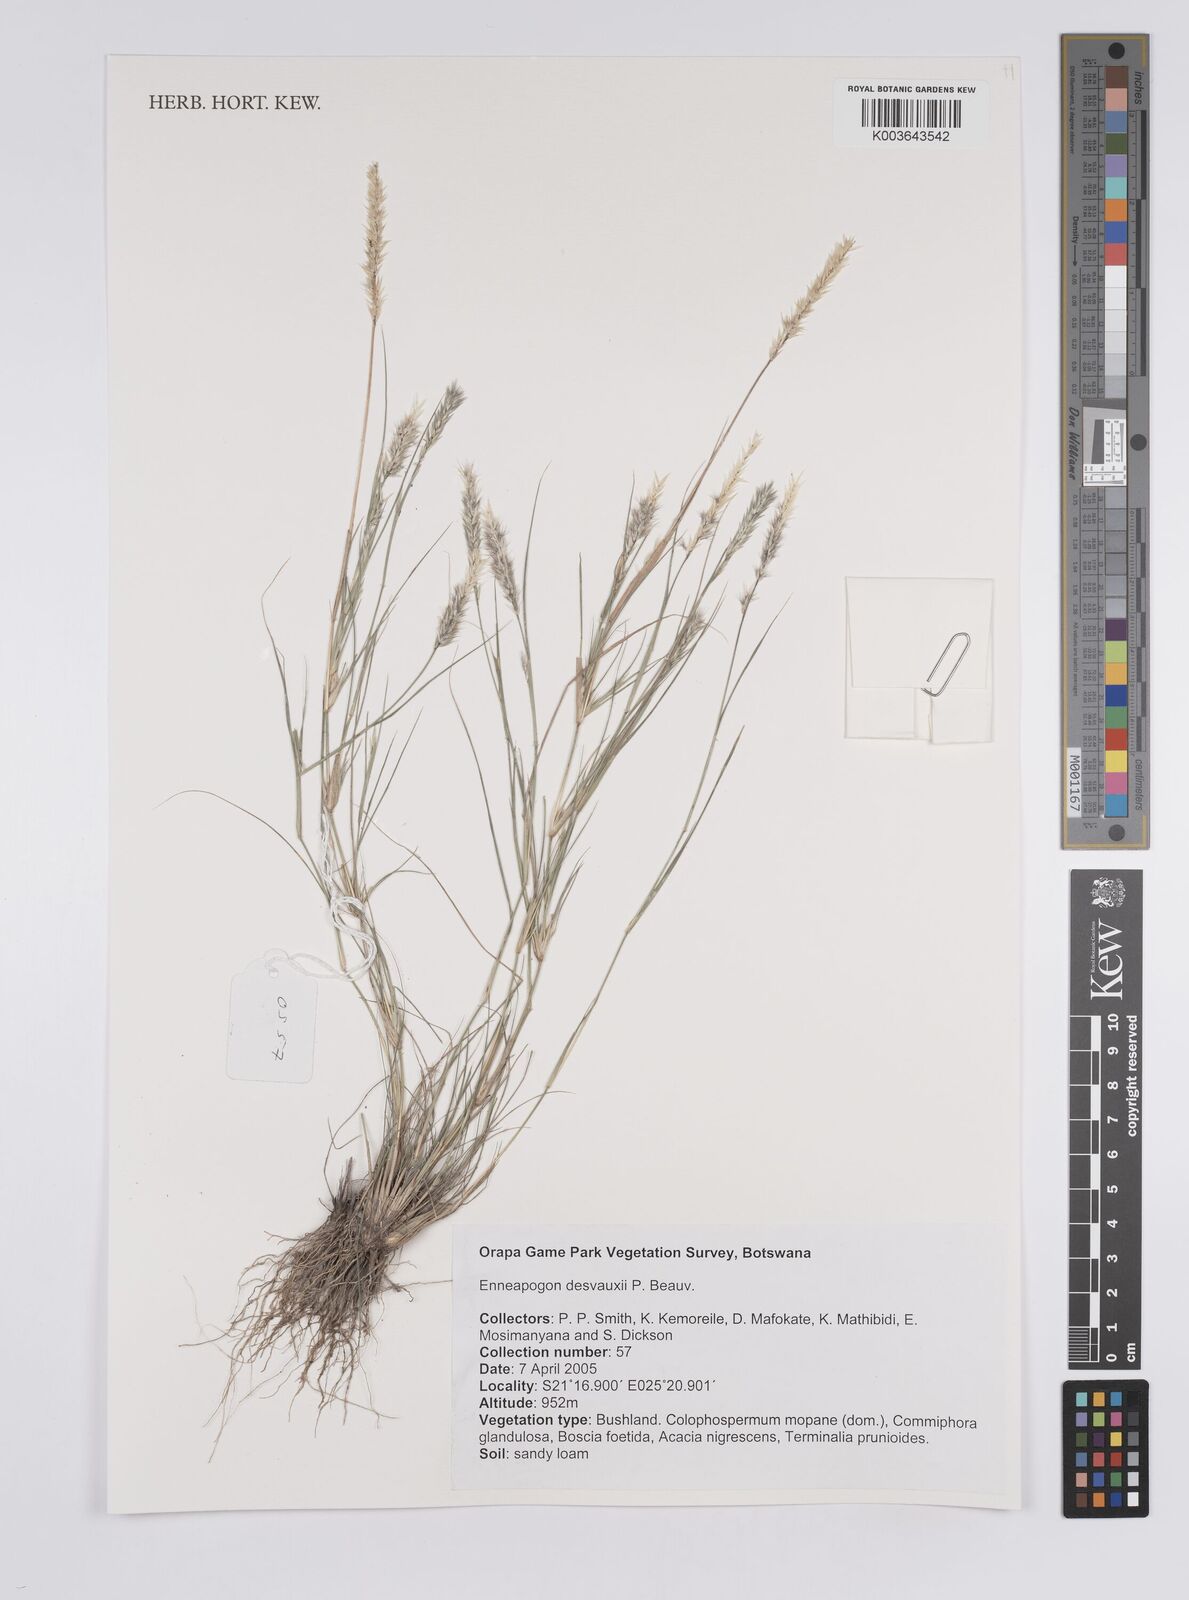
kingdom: Plantae
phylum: Tracheophyta
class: Liliopsida
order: Poales
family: Poaceae
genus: Enneapogon
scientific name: Enneapogon desvauxii
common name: Feather pappus grass
